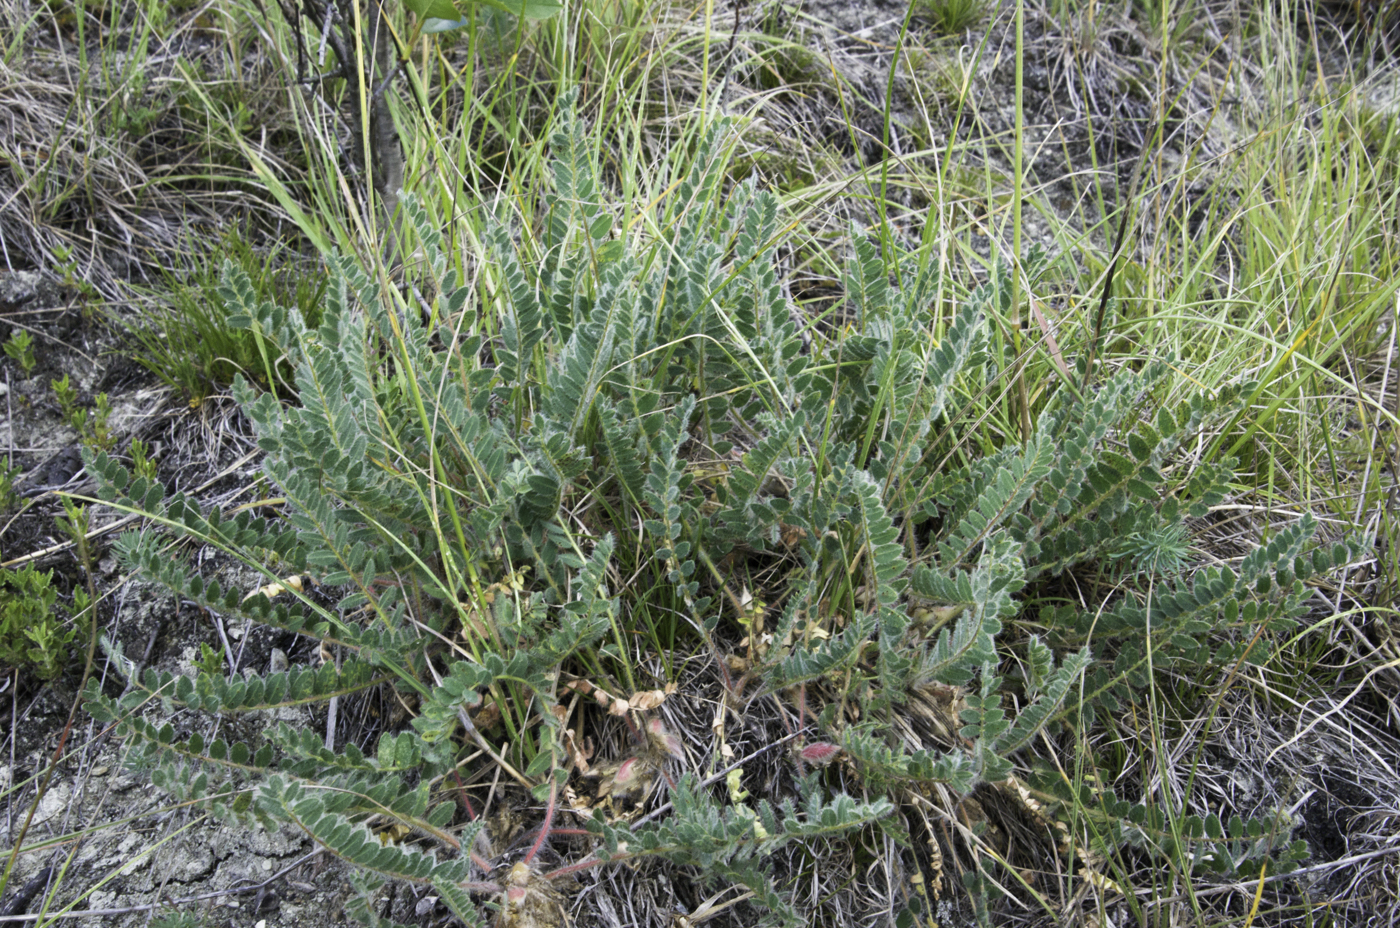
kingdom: Plantae
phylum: Tracheophyta
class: Magnoliopsida
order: Fabales
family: Fabaceae
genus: Astragalus
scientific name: Astragalus exscapus
